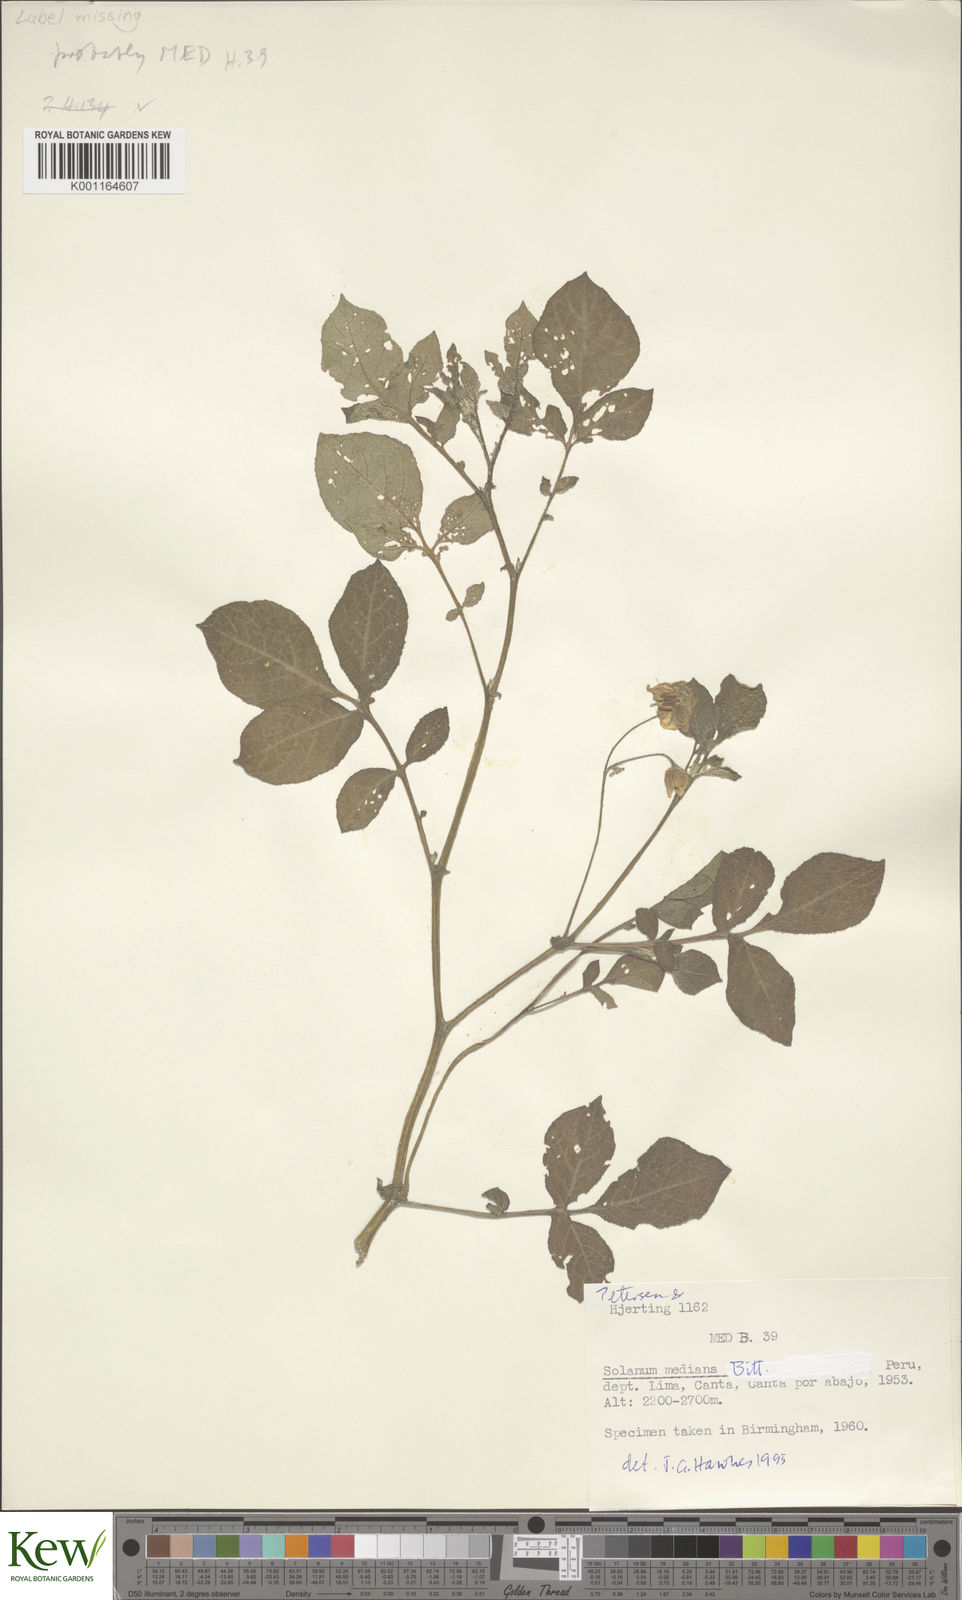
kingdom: Plantae
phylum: Tracheophyta
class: Magnoliopsida
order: Solanales
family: Solanaceae
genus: Solanum
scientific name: Solanum medians
